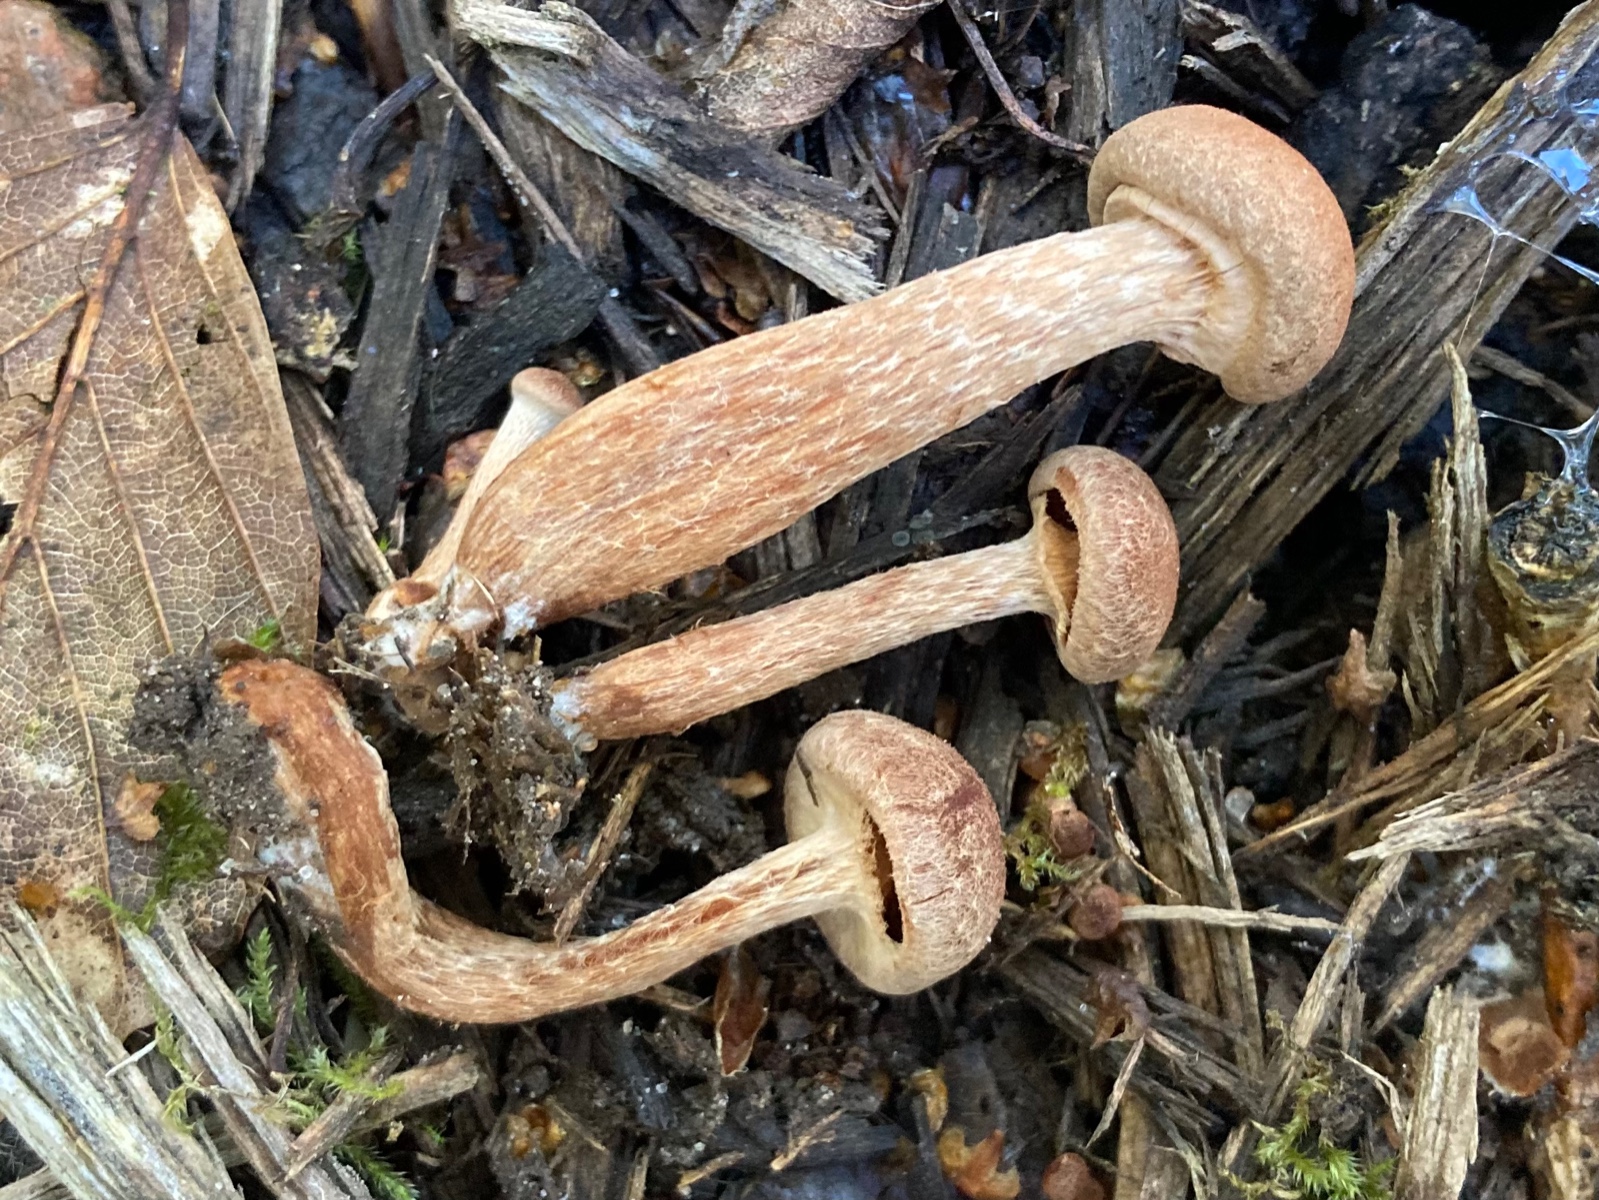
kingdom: Fungi
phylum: Basidiomycota
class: Agaricomycetes
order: Agaricales
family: Tubariaceae
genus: Tubaria
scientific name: Tubaria confragosa
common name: ring-fnughat
